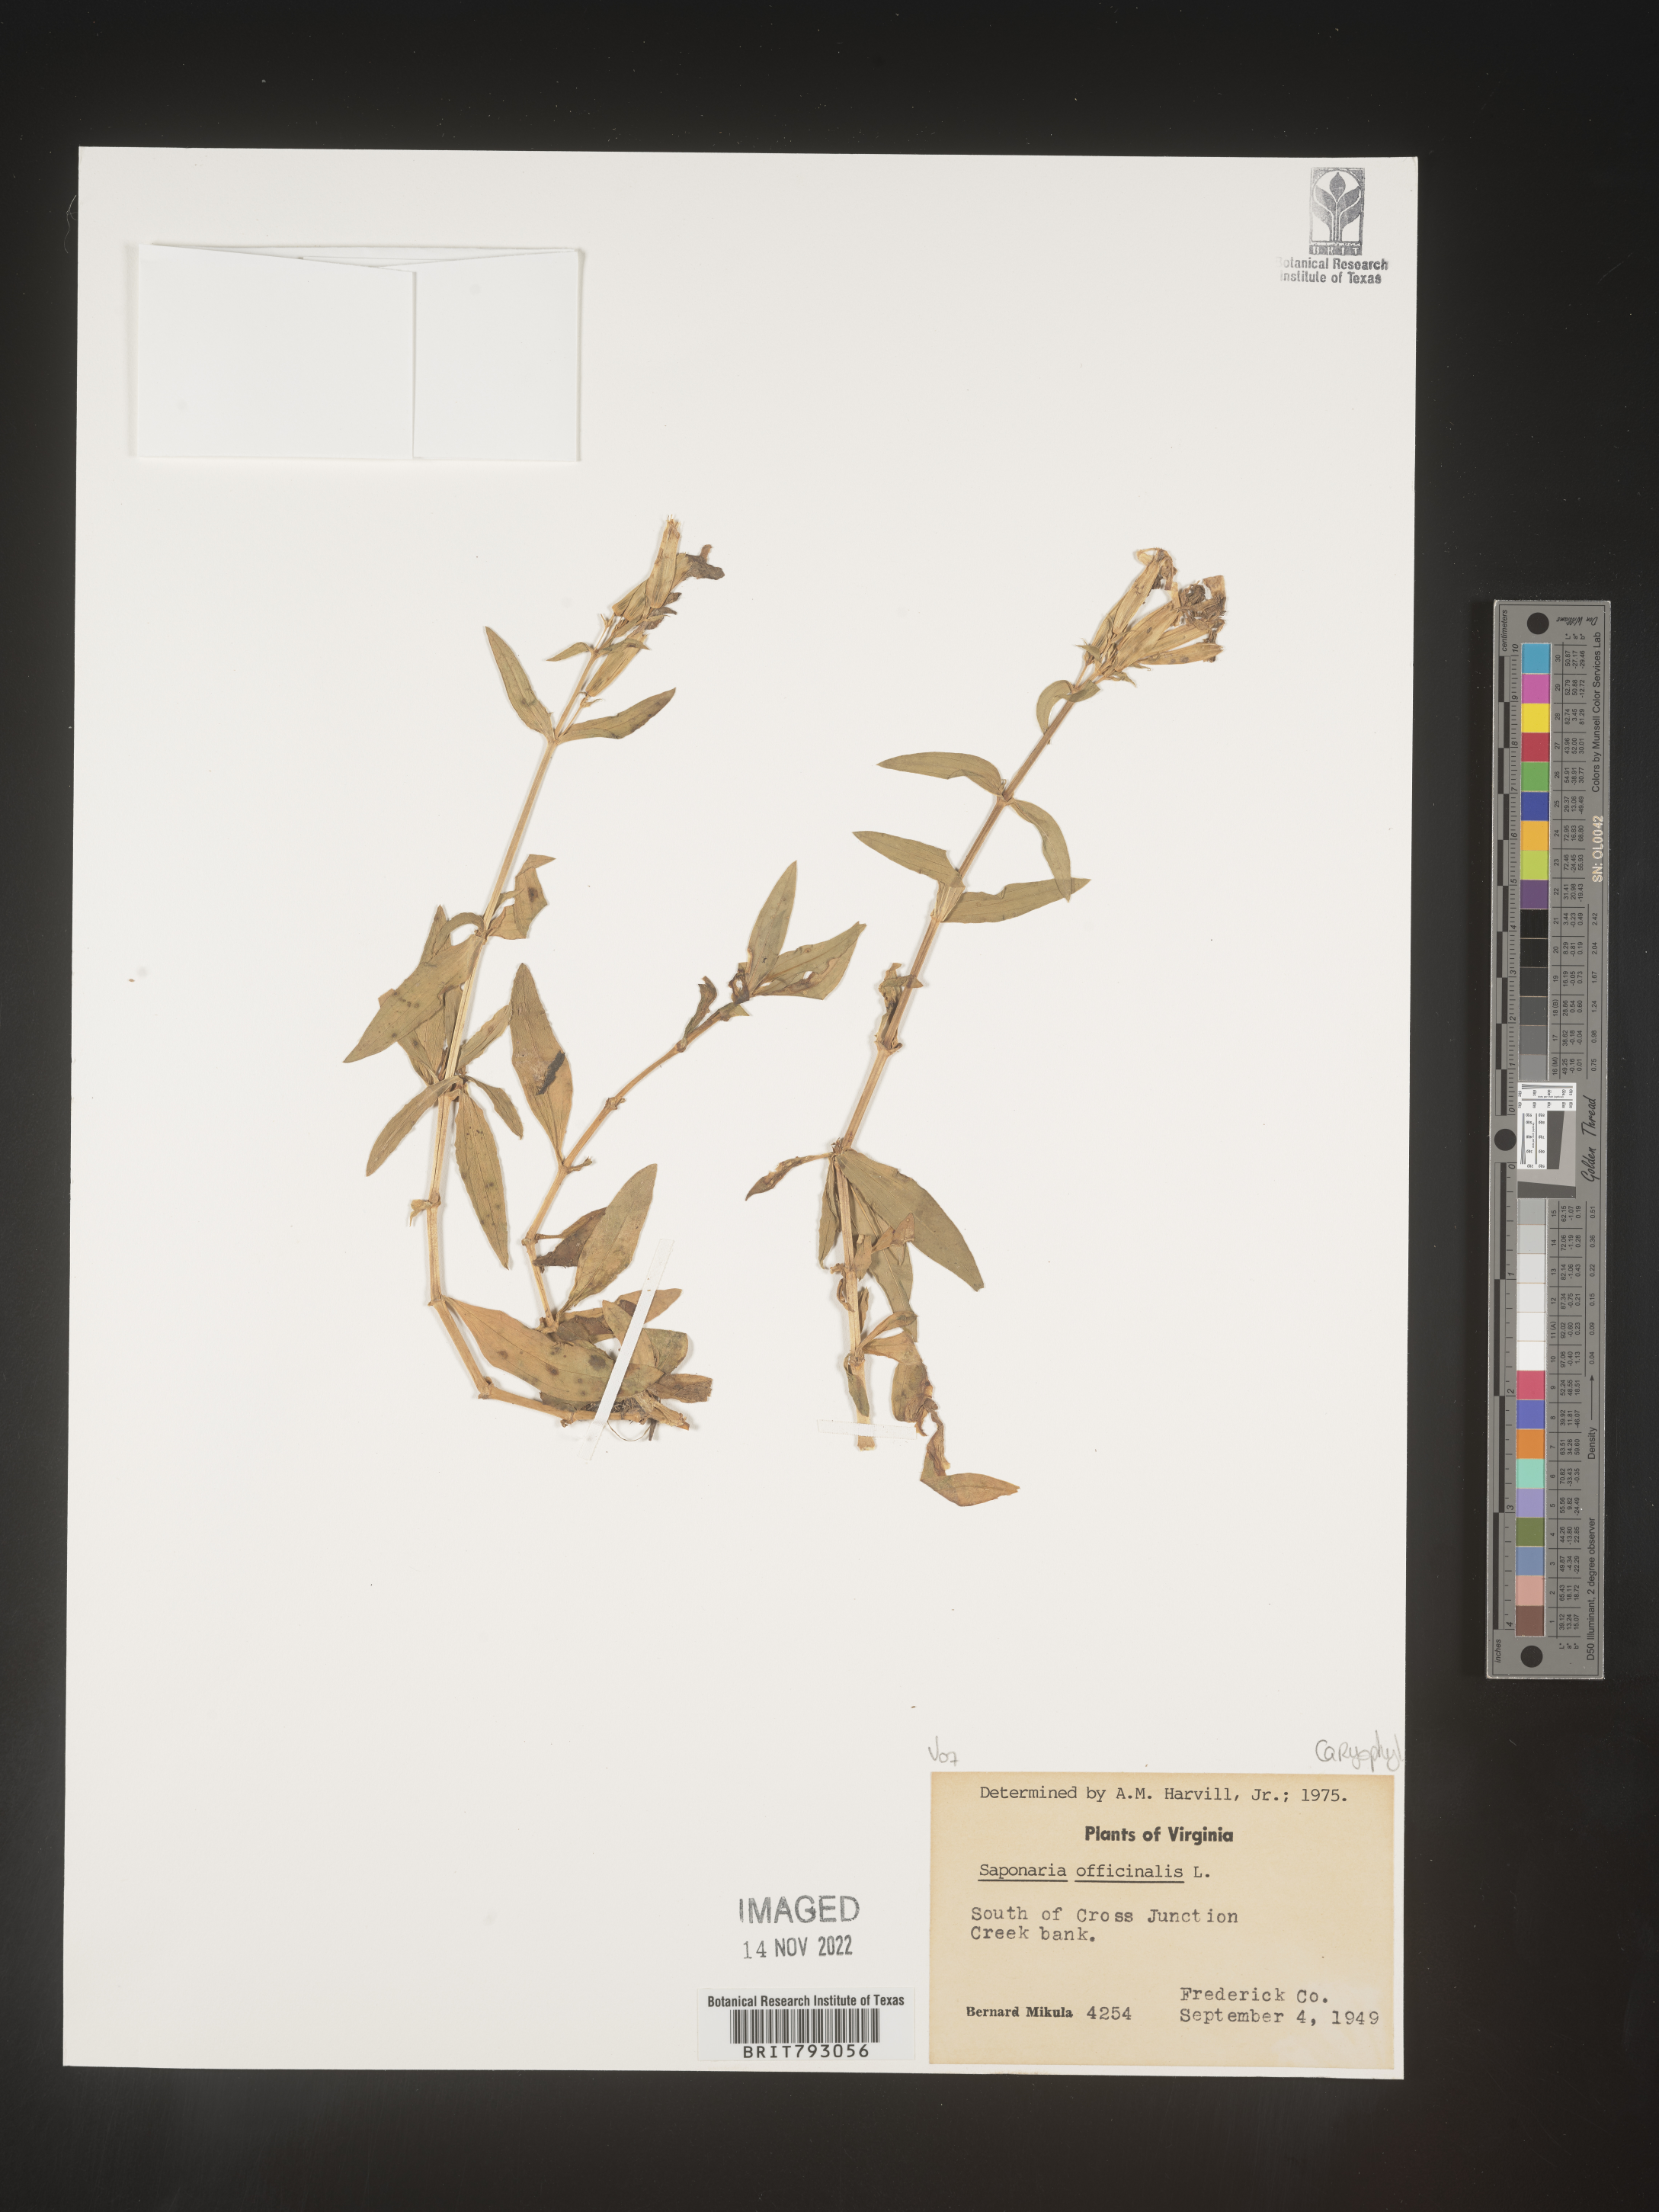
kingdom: Plantae
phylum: Tracheophyta
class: Magnoliopsida
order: Caryophyllales
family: Caryophyllaceae
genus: Saponaria
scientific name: Saponaria officinalis
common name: Soapwort
